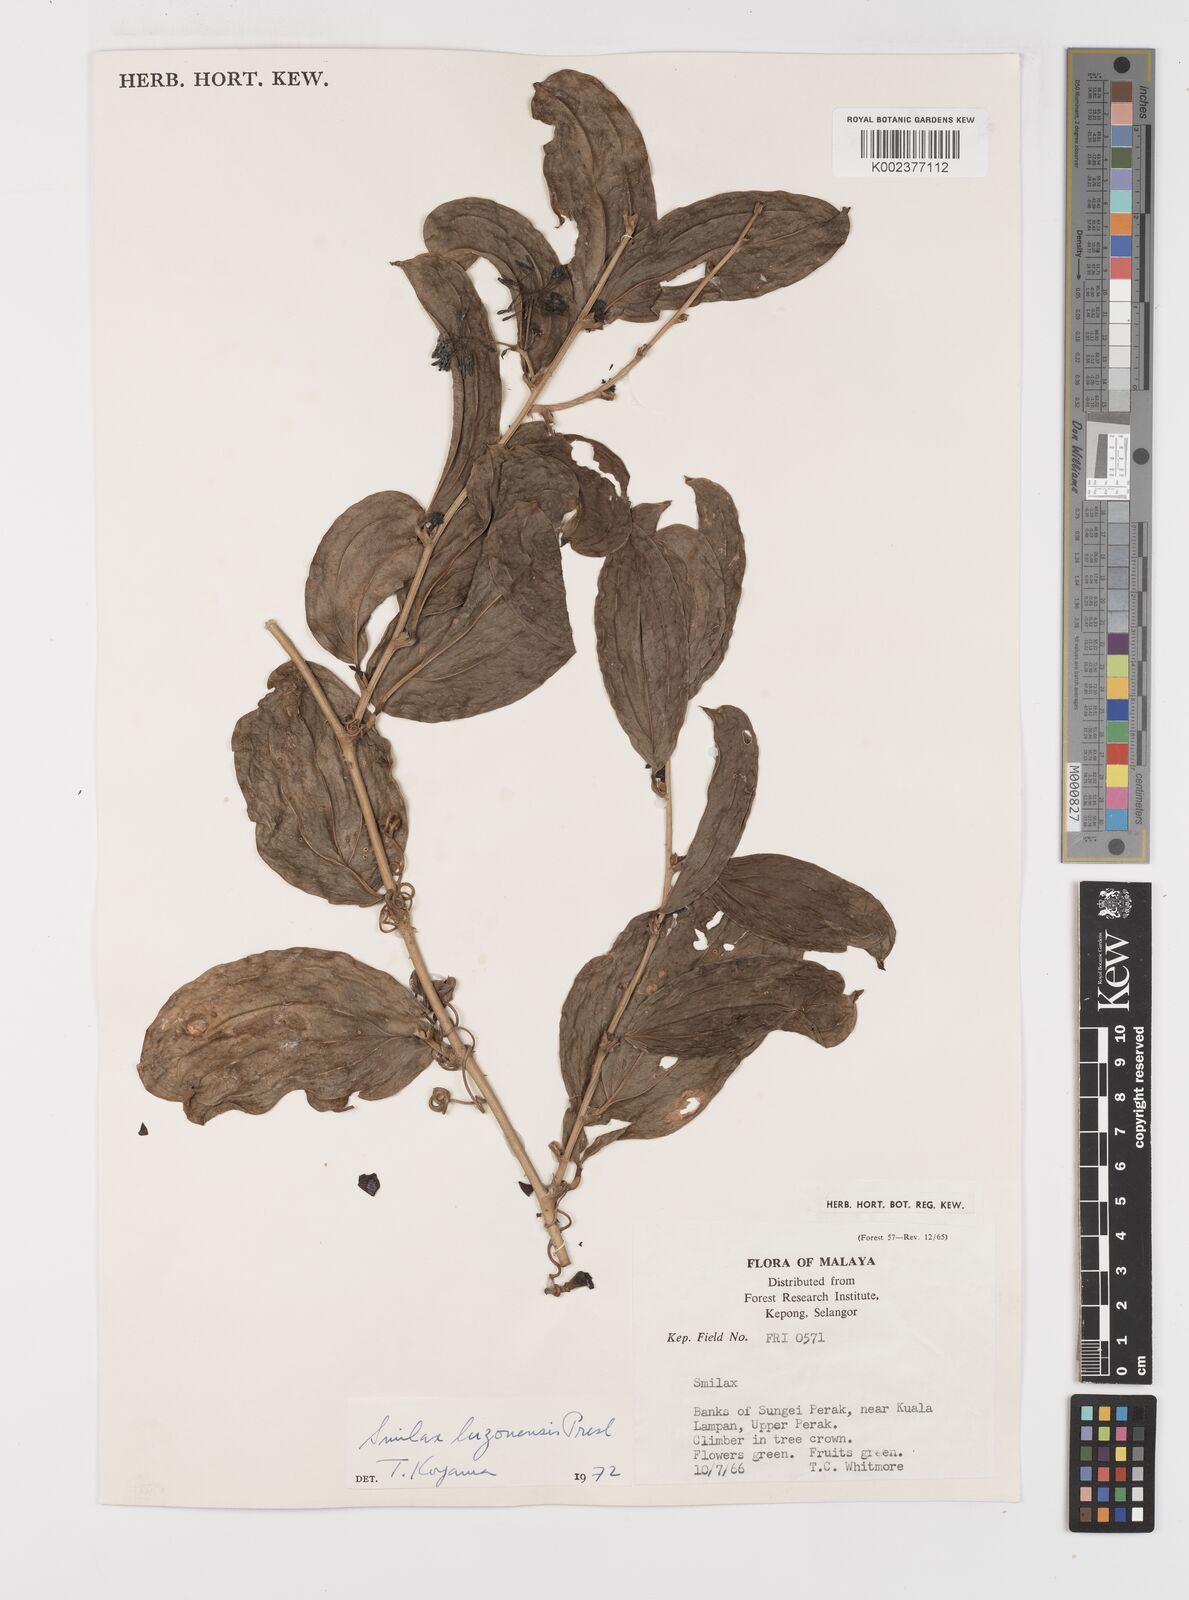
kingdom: Plantae
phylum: Tracheophyta
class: Liliopsida
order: Liliales
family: Smilacaceae
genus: Smilax
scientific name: Smilax luzonensis
